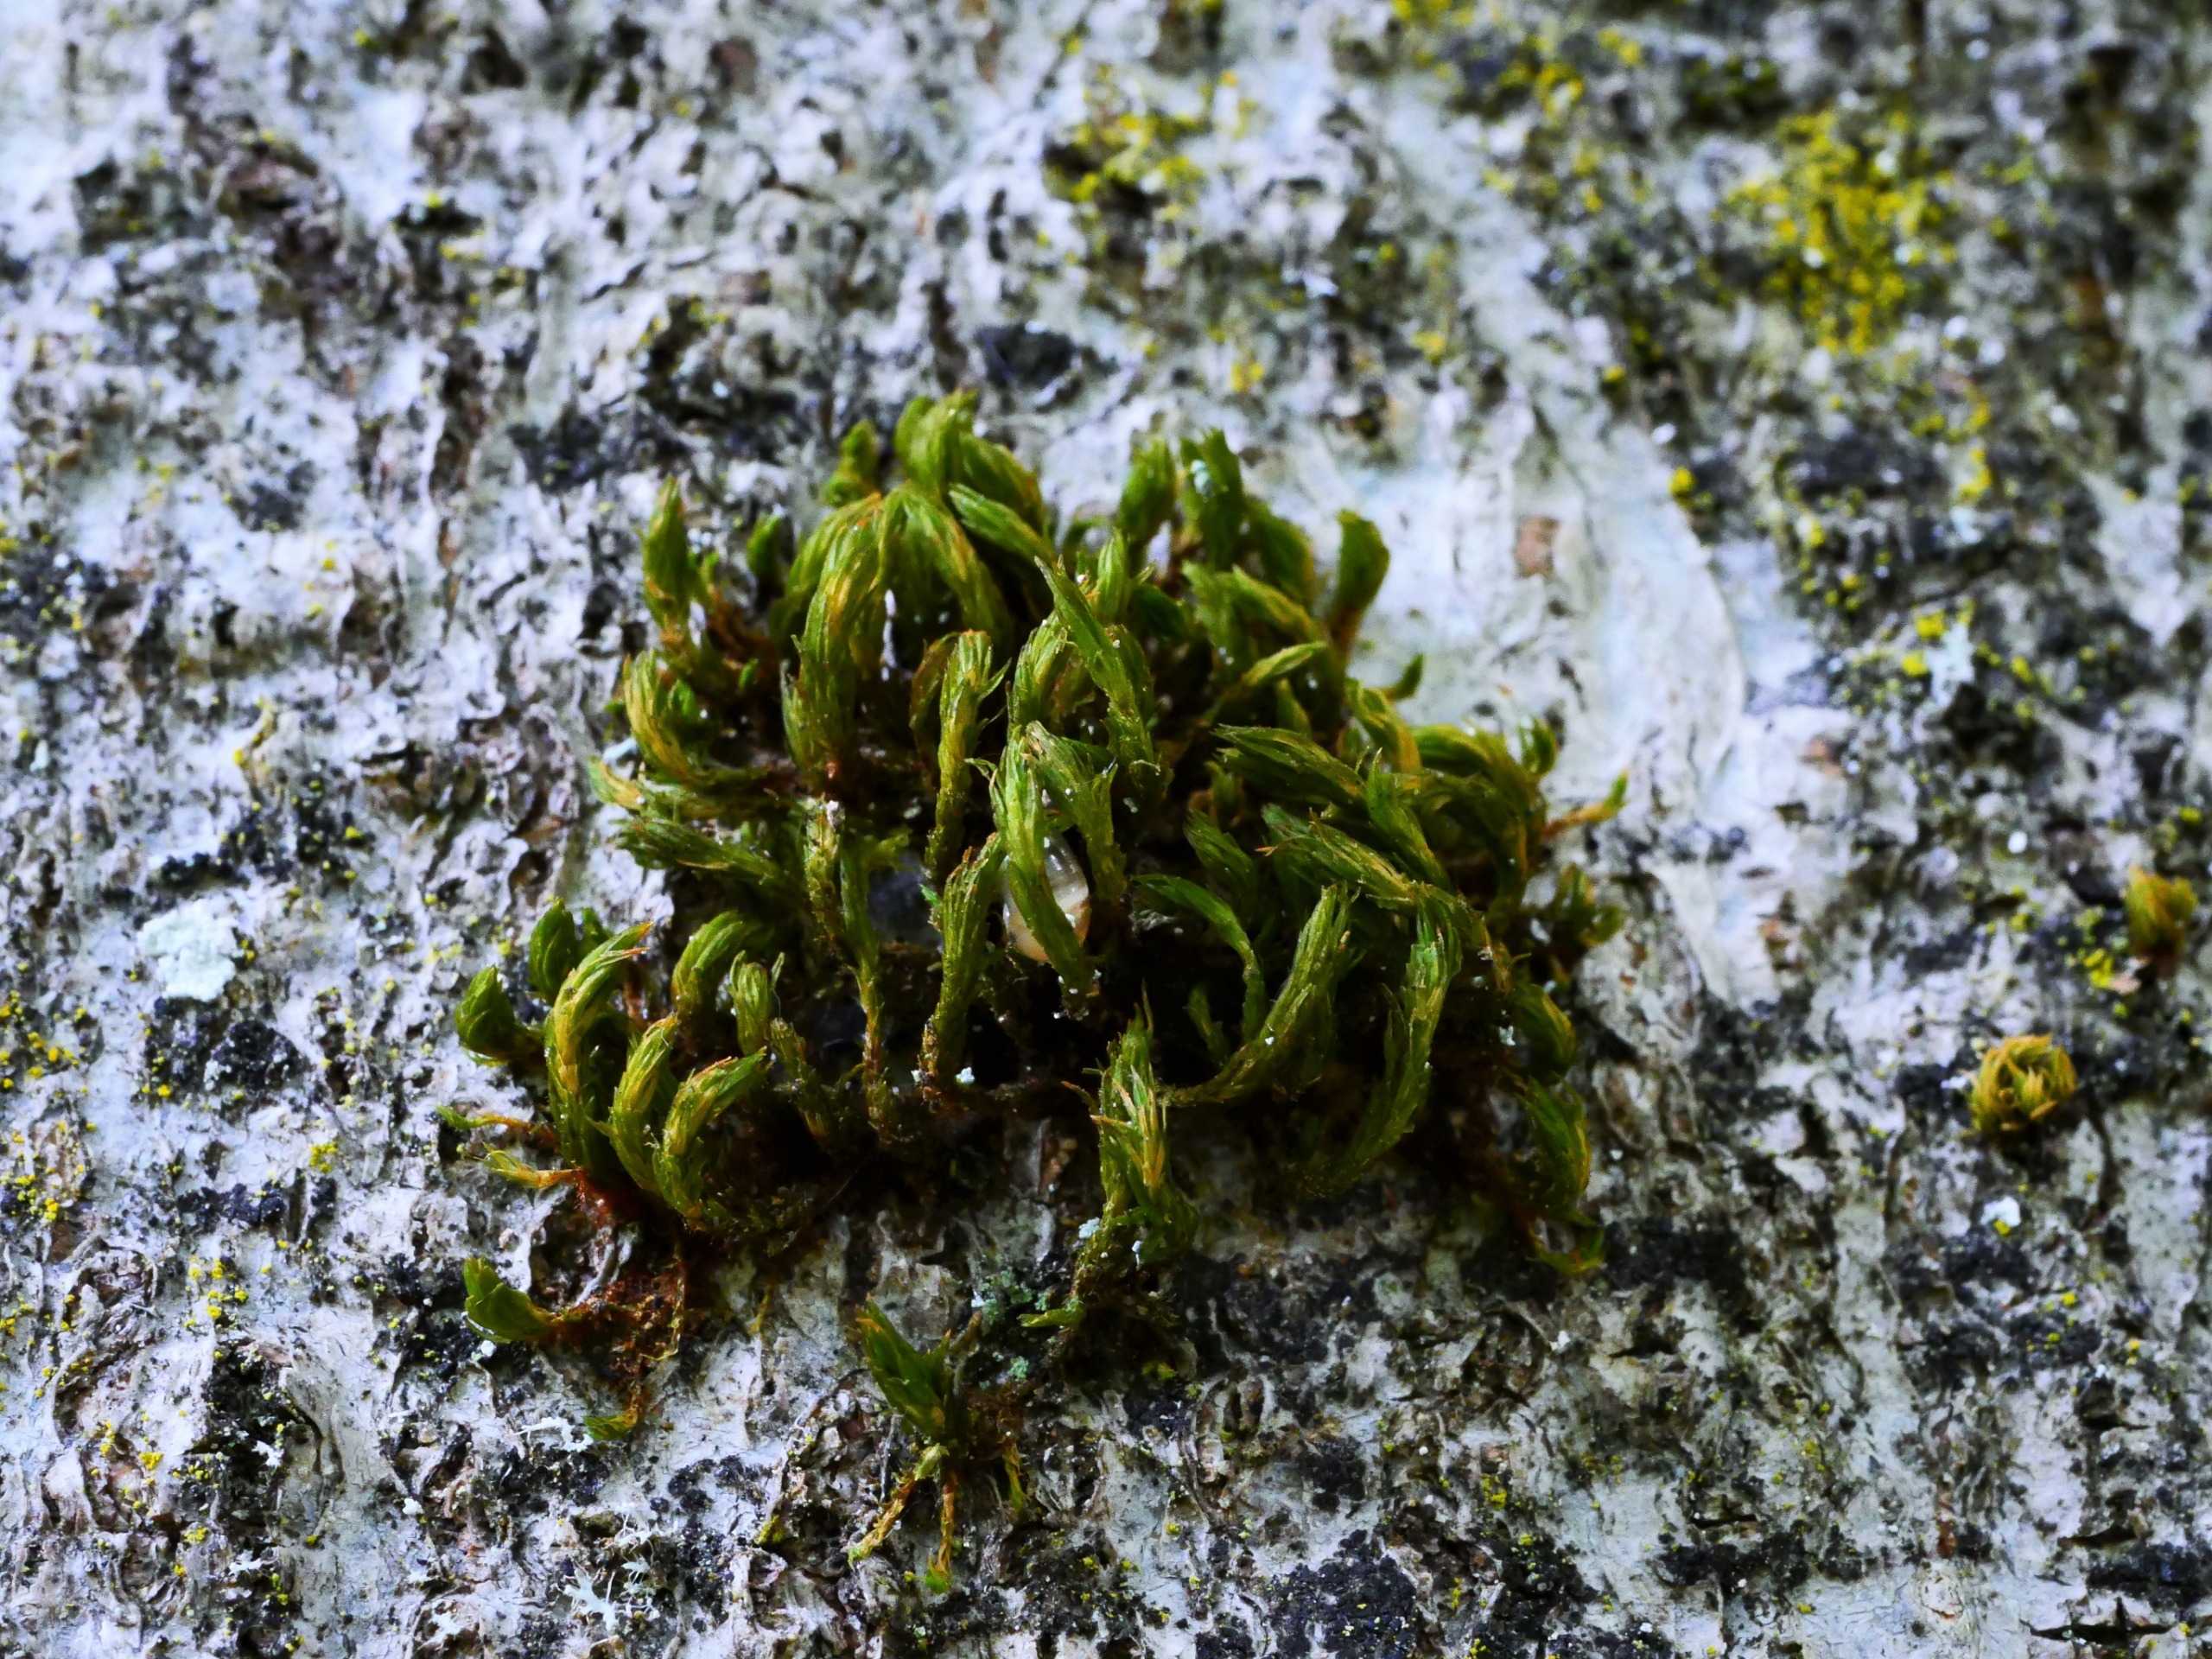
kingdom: Plantae
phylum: Bryophyta
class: Bryopsida
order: Orthotrichales
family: Orthotrichaceae
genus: Pulvigera
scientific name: Pulvigera lyellii
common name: Stor furehætte
